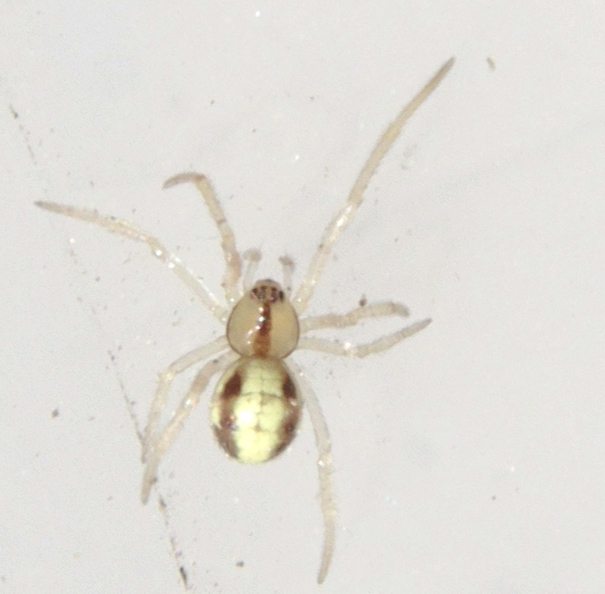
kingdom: Animalia
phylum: Arthropoda
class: Arachnida
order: Araneae
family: Theridiidae
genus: Enoplognatha
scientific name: Enoplognatha ovata
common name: Common candy-striped spider
